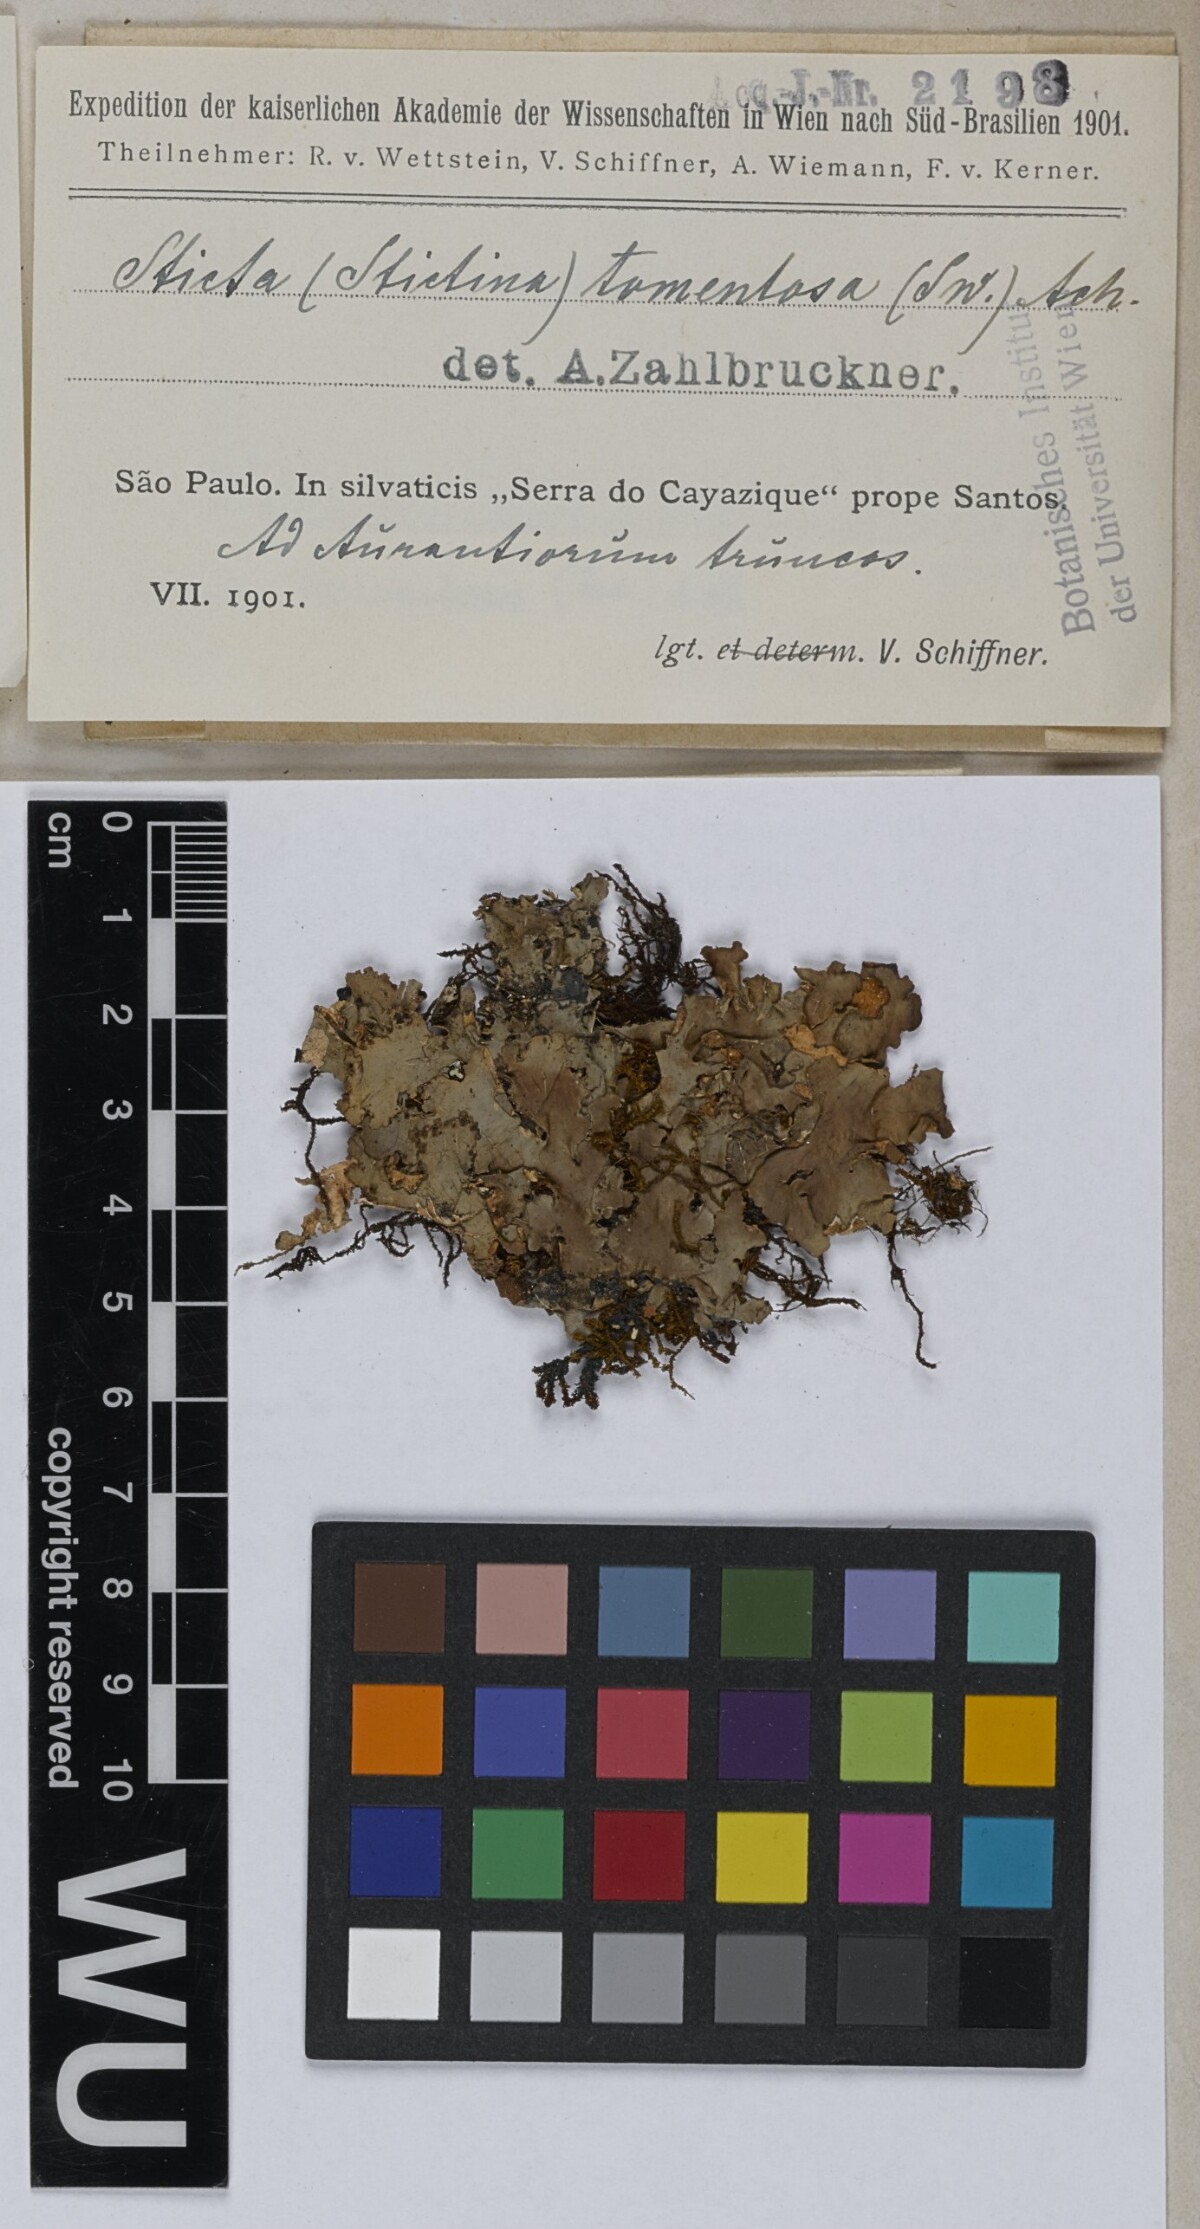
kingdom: Fungi
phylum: Ascomycota
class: Lecanoromycetes
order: Peltigerales
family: Lobariaceae
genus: Sticta
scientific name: Sticta tomentosa
